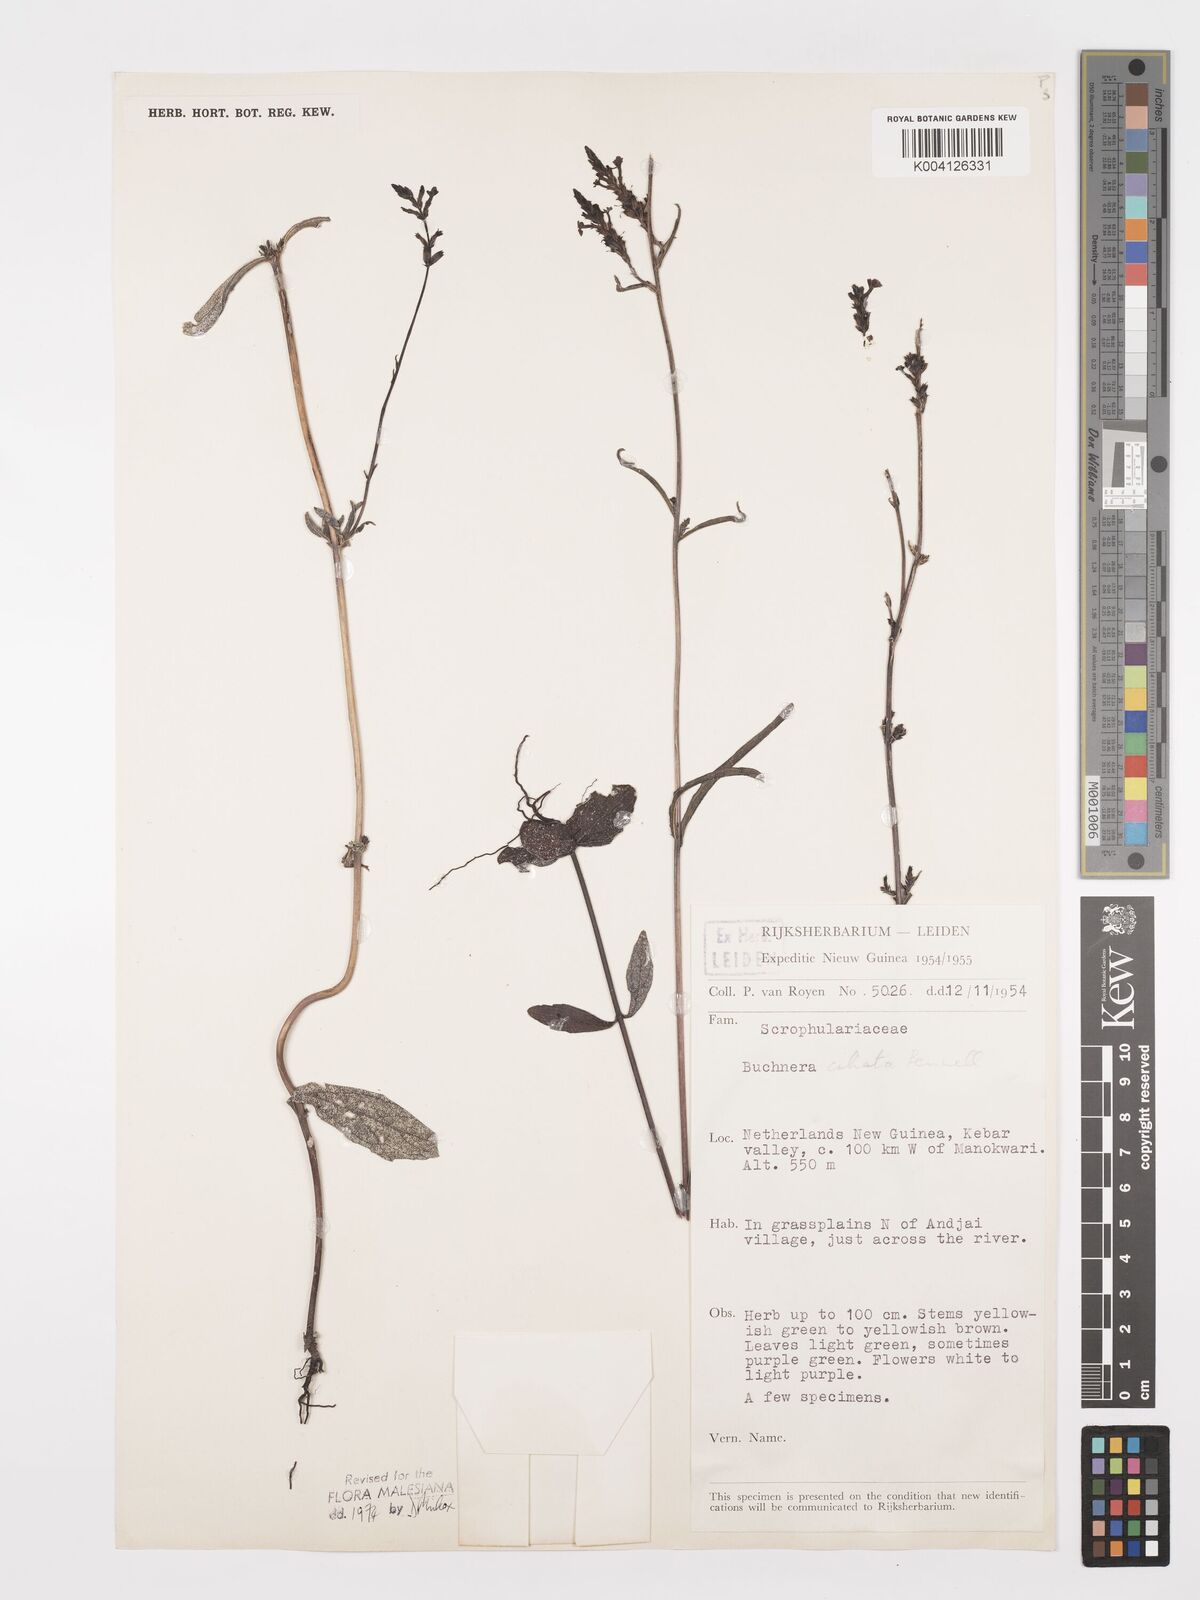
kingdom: Plantae
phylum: Tracheophyta
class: Magnoliopsida
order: Lamiales
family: Orobanchaceae
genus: Buchnera
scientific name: Buchnera ciliata
